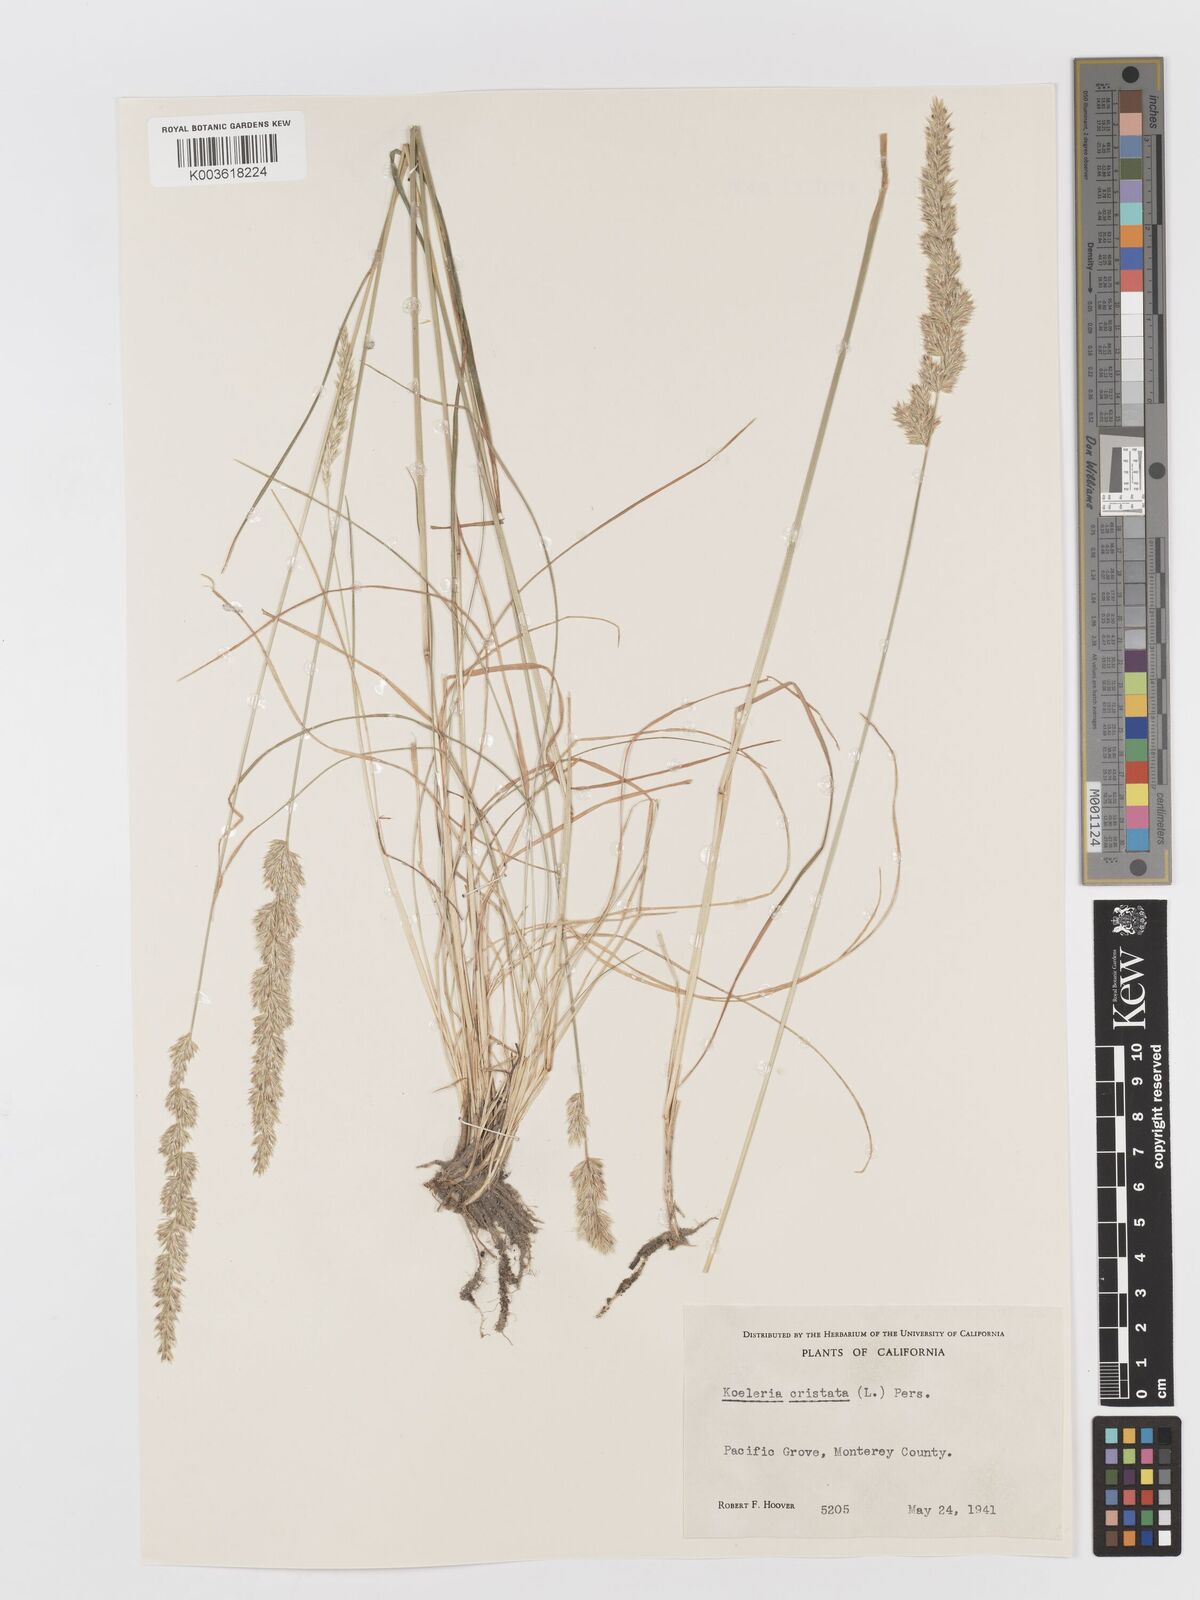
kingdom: Plantae
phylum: Tracheophyta
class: Liliopsida
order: Poales
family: Poaceae
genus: Koeleria
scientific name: Koeleria macrantha
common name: Crested hair-grass
